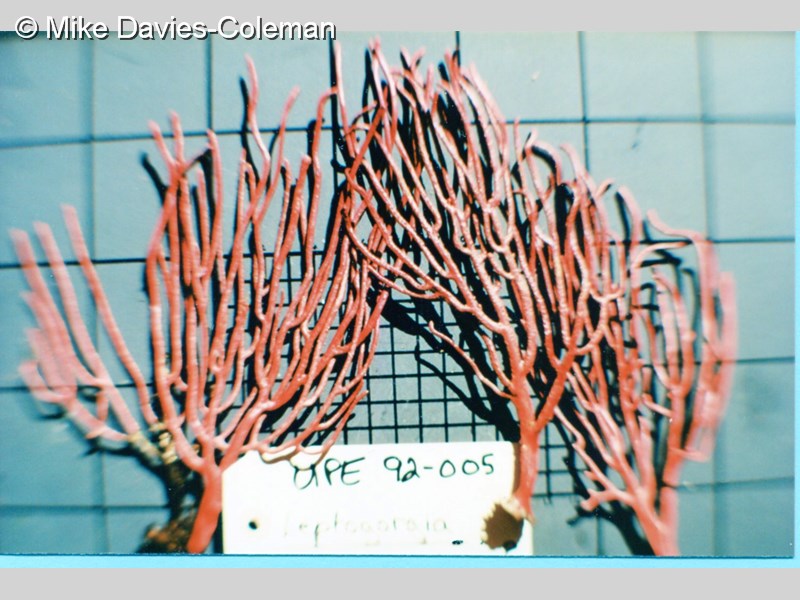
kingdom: Animalia
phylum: Cnidaria
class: Anthozoa
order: Malacalcyonacea
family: Gorgoniidae
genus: Leptogorgia
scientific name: Leptogorgia palma
